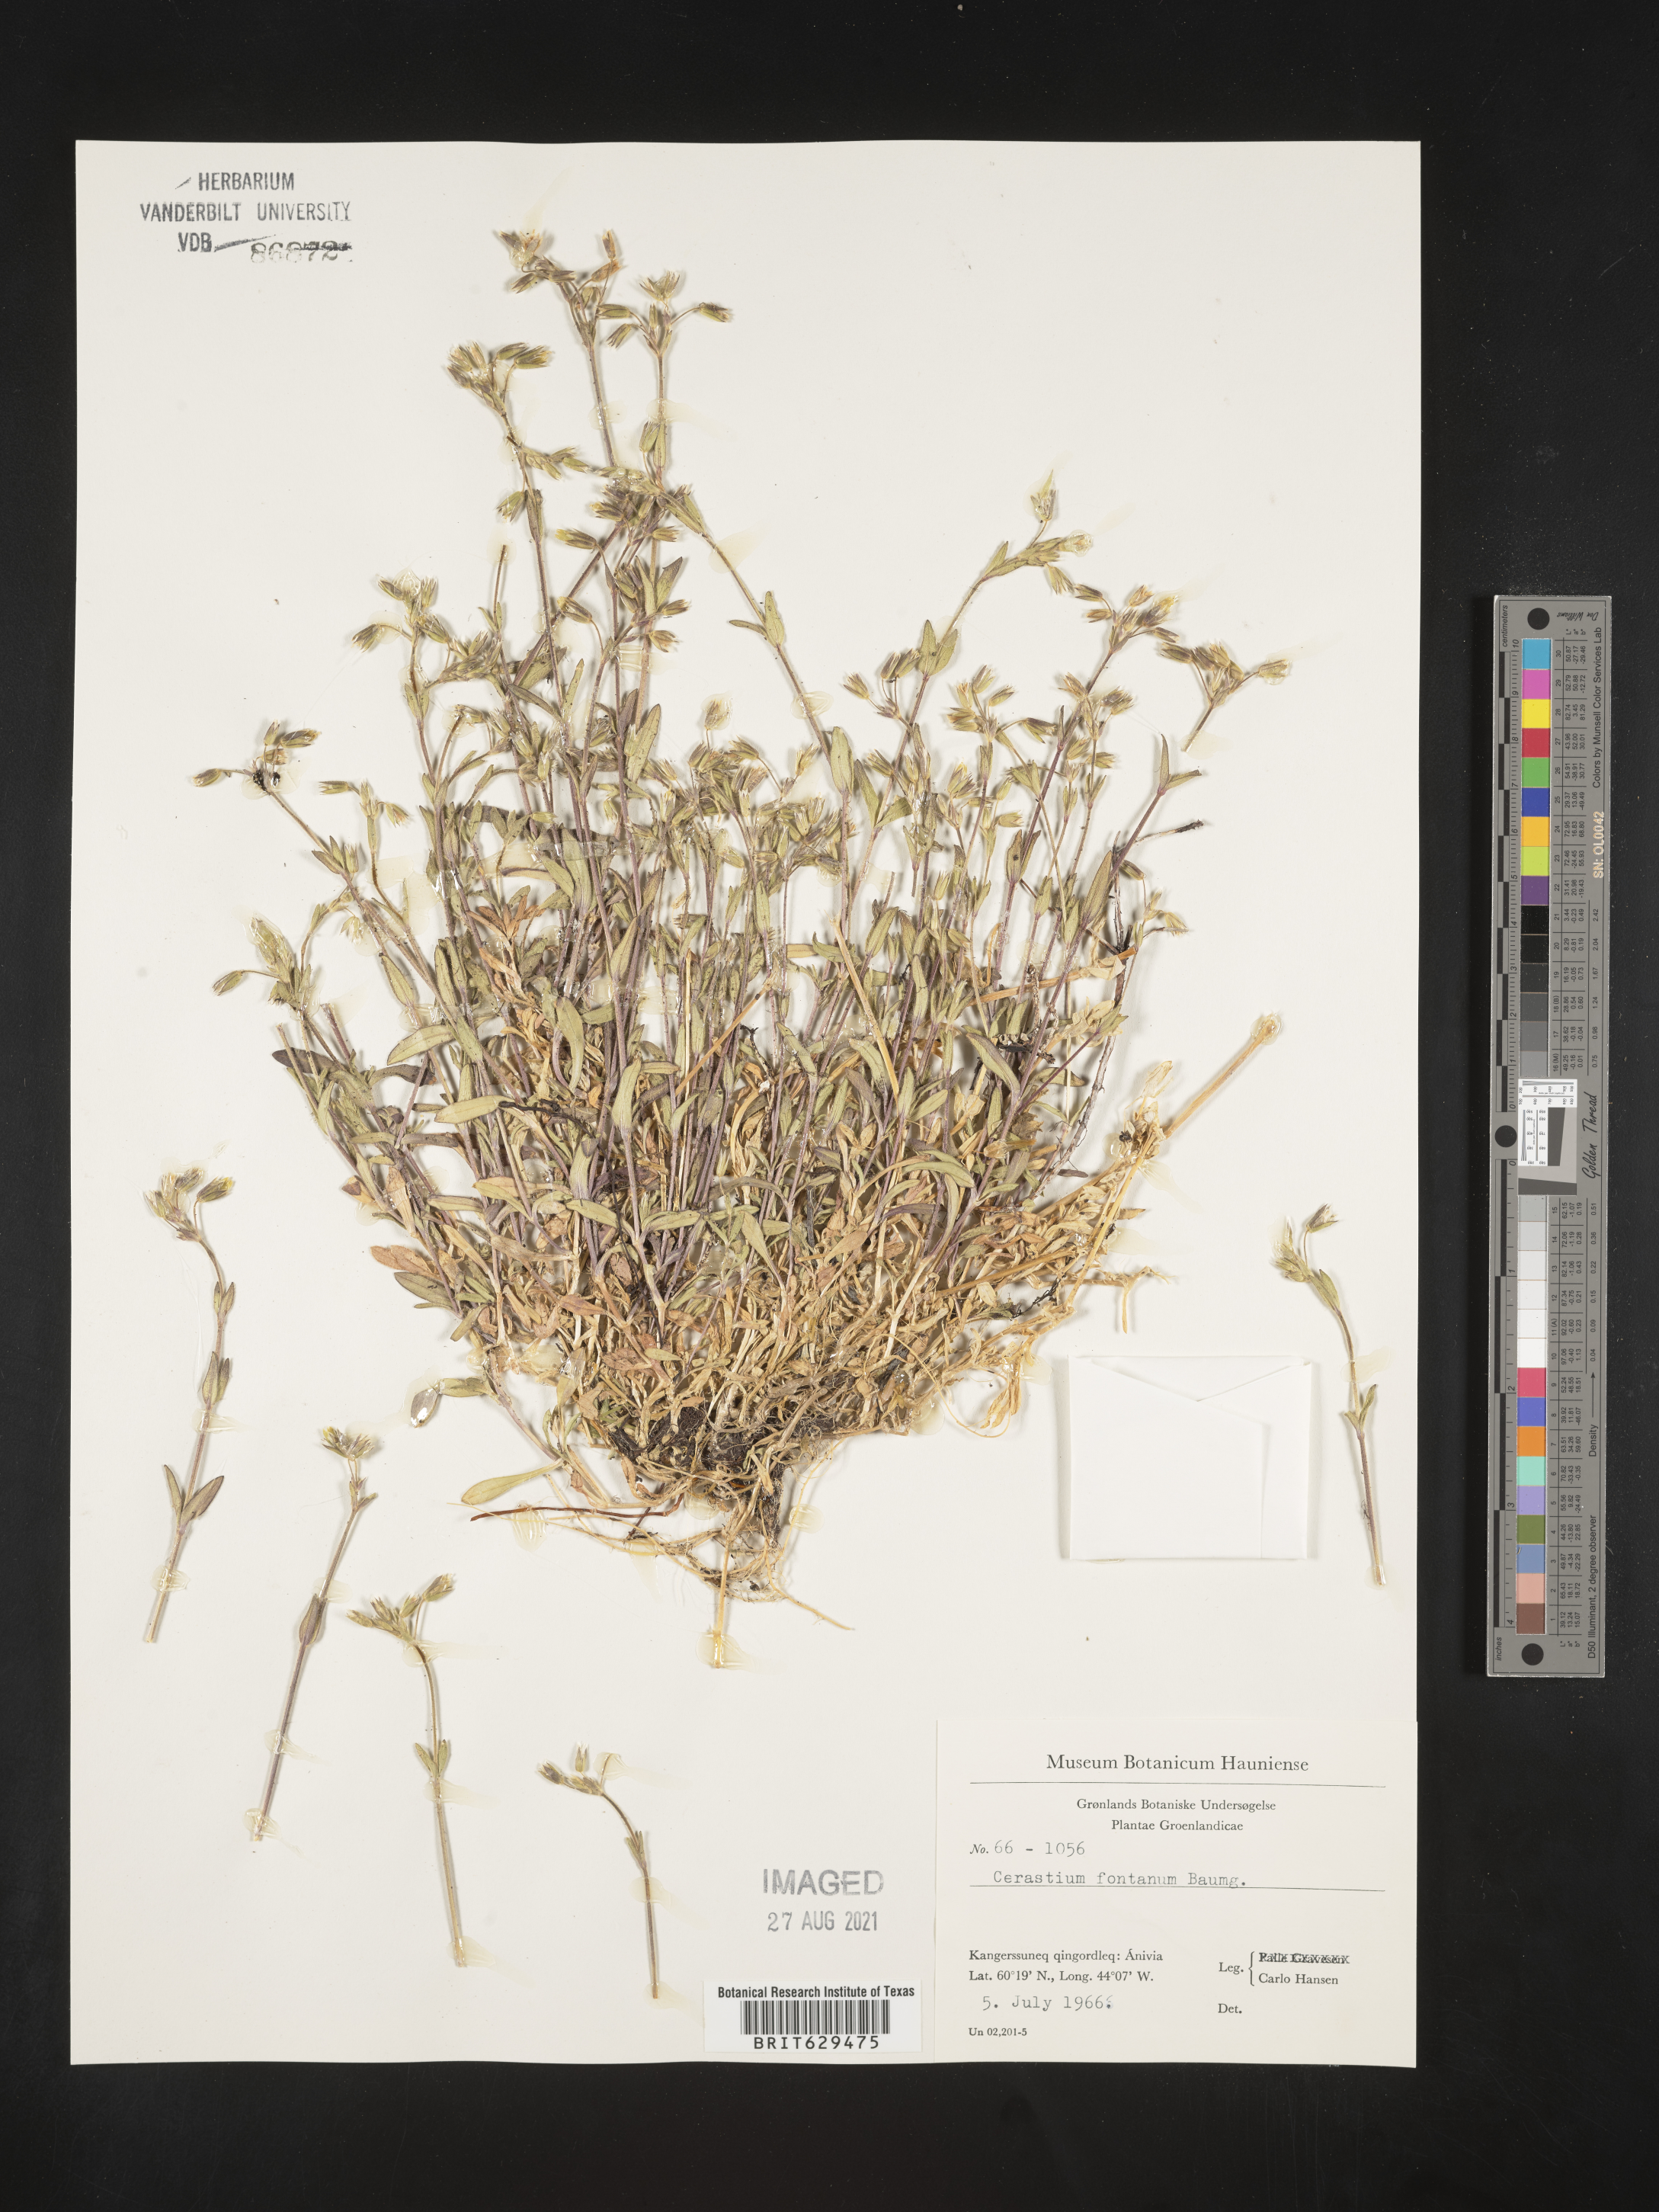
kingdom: Plantae
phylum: Tracheophyta
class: Magnoliopsida
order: Caryophyllales
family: Caryophyllaceae
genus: Cerastium
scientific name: Cerastium fontanum
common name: Common mouse-ear
